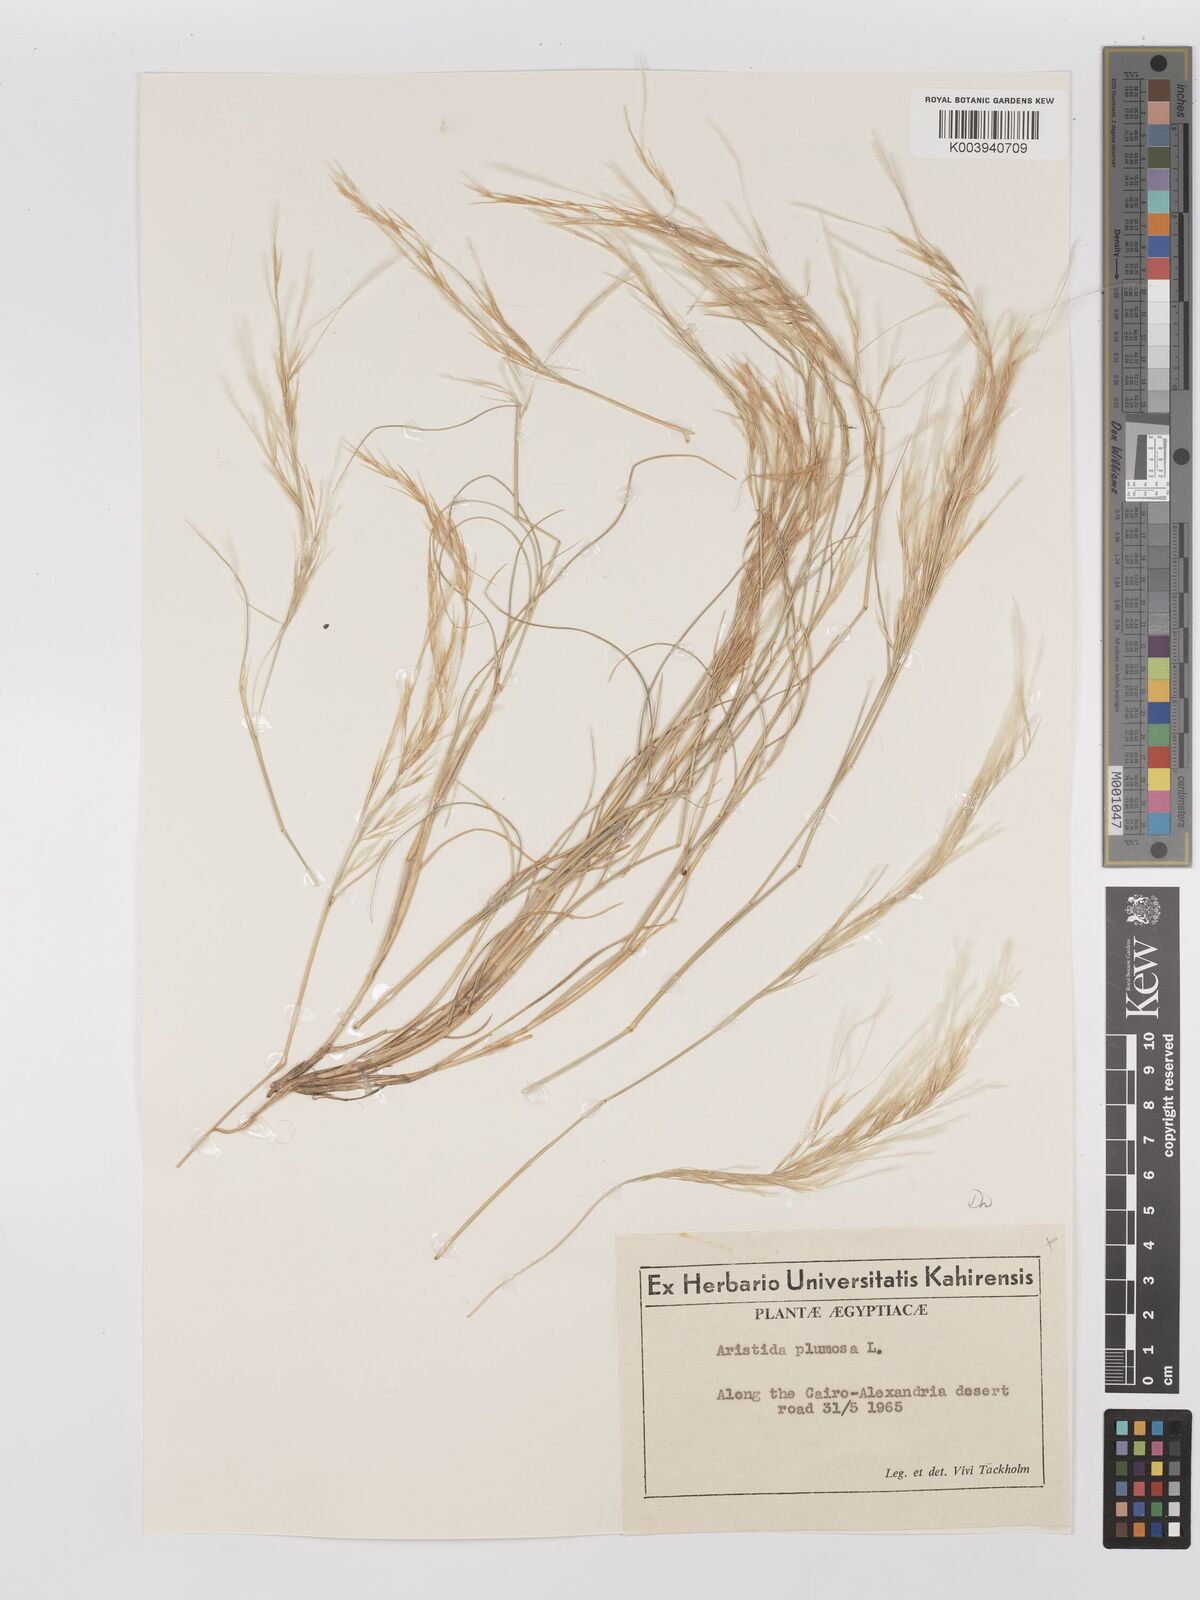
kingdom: Plantae
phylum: Tracheophyta
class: Liliopsida
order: Poales
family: Poaceae
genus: Stipagrostis
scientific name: Stipagrostis plumosa
